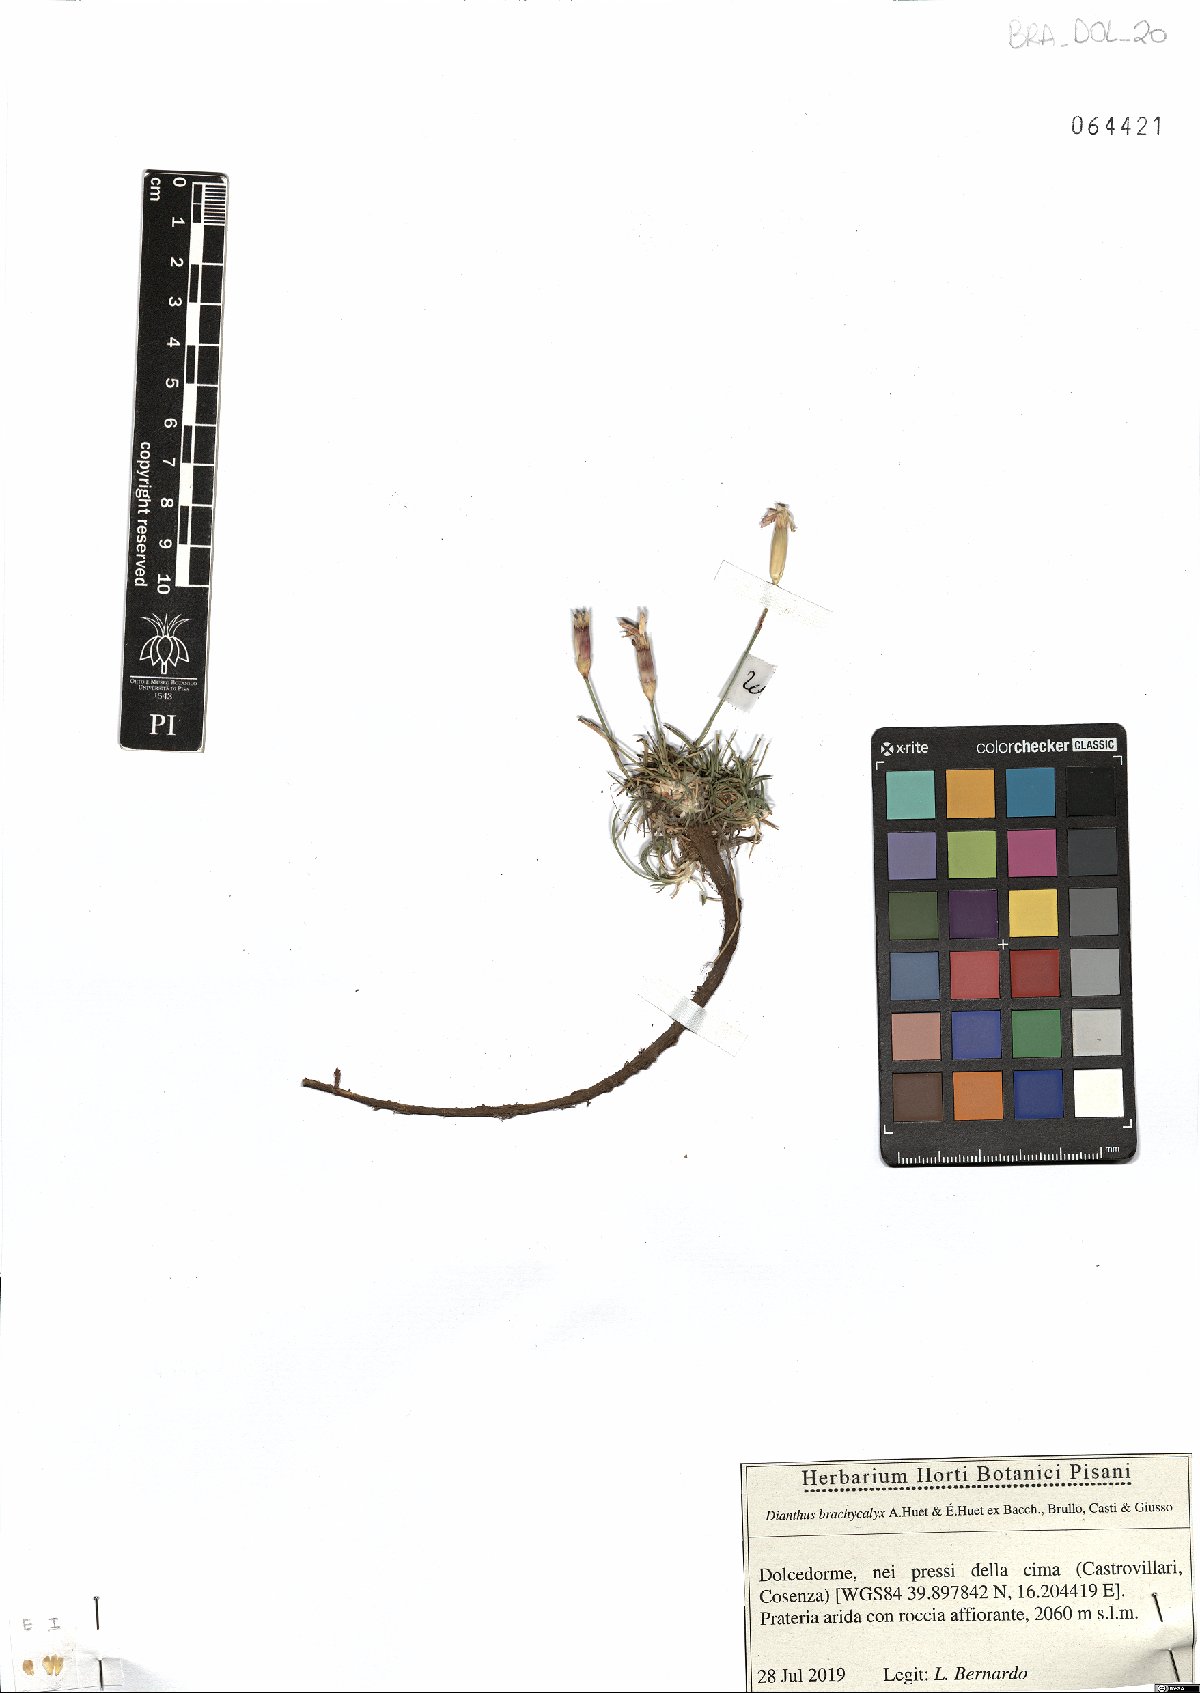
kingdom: Plantae
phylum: Tracheophyta
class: Magnoliopsida
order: Caryophyllales
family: Caryophyllaceae
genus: Dianthus
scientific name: Dianthus brachycalyx
